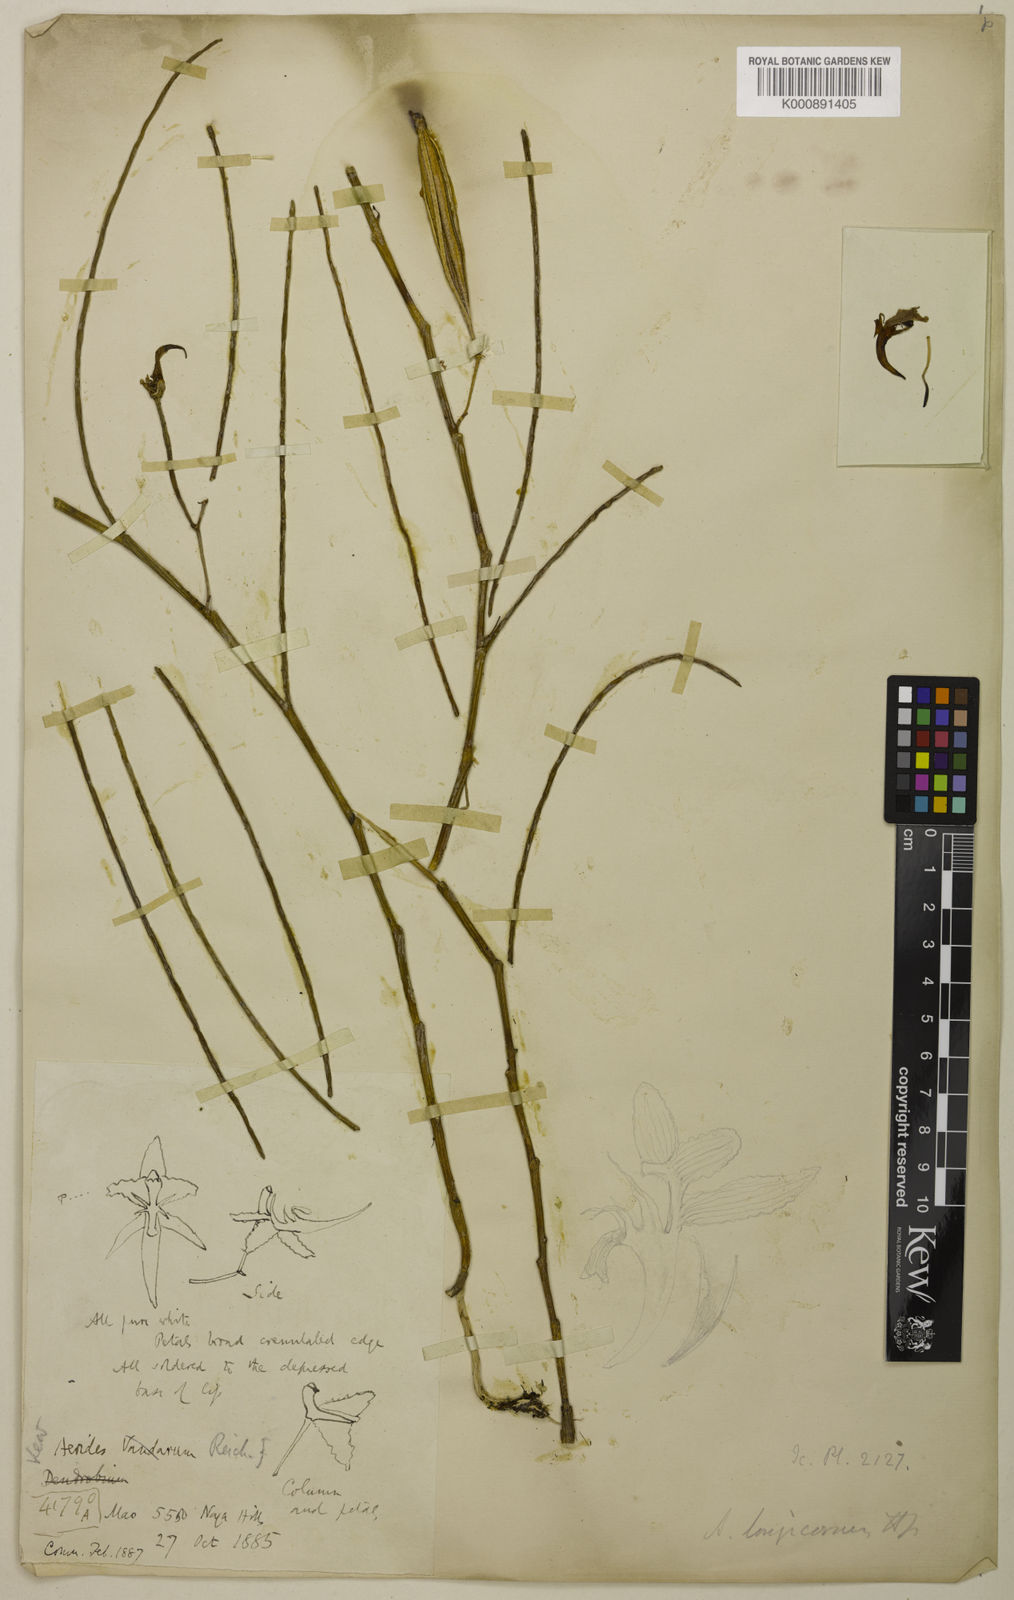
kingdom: Plantae
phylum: Tracheophyta
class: Liliopsida
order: Asparagales
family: Orchidaceae
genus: Papilionanthe
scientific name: Papilionanthe uniflora
